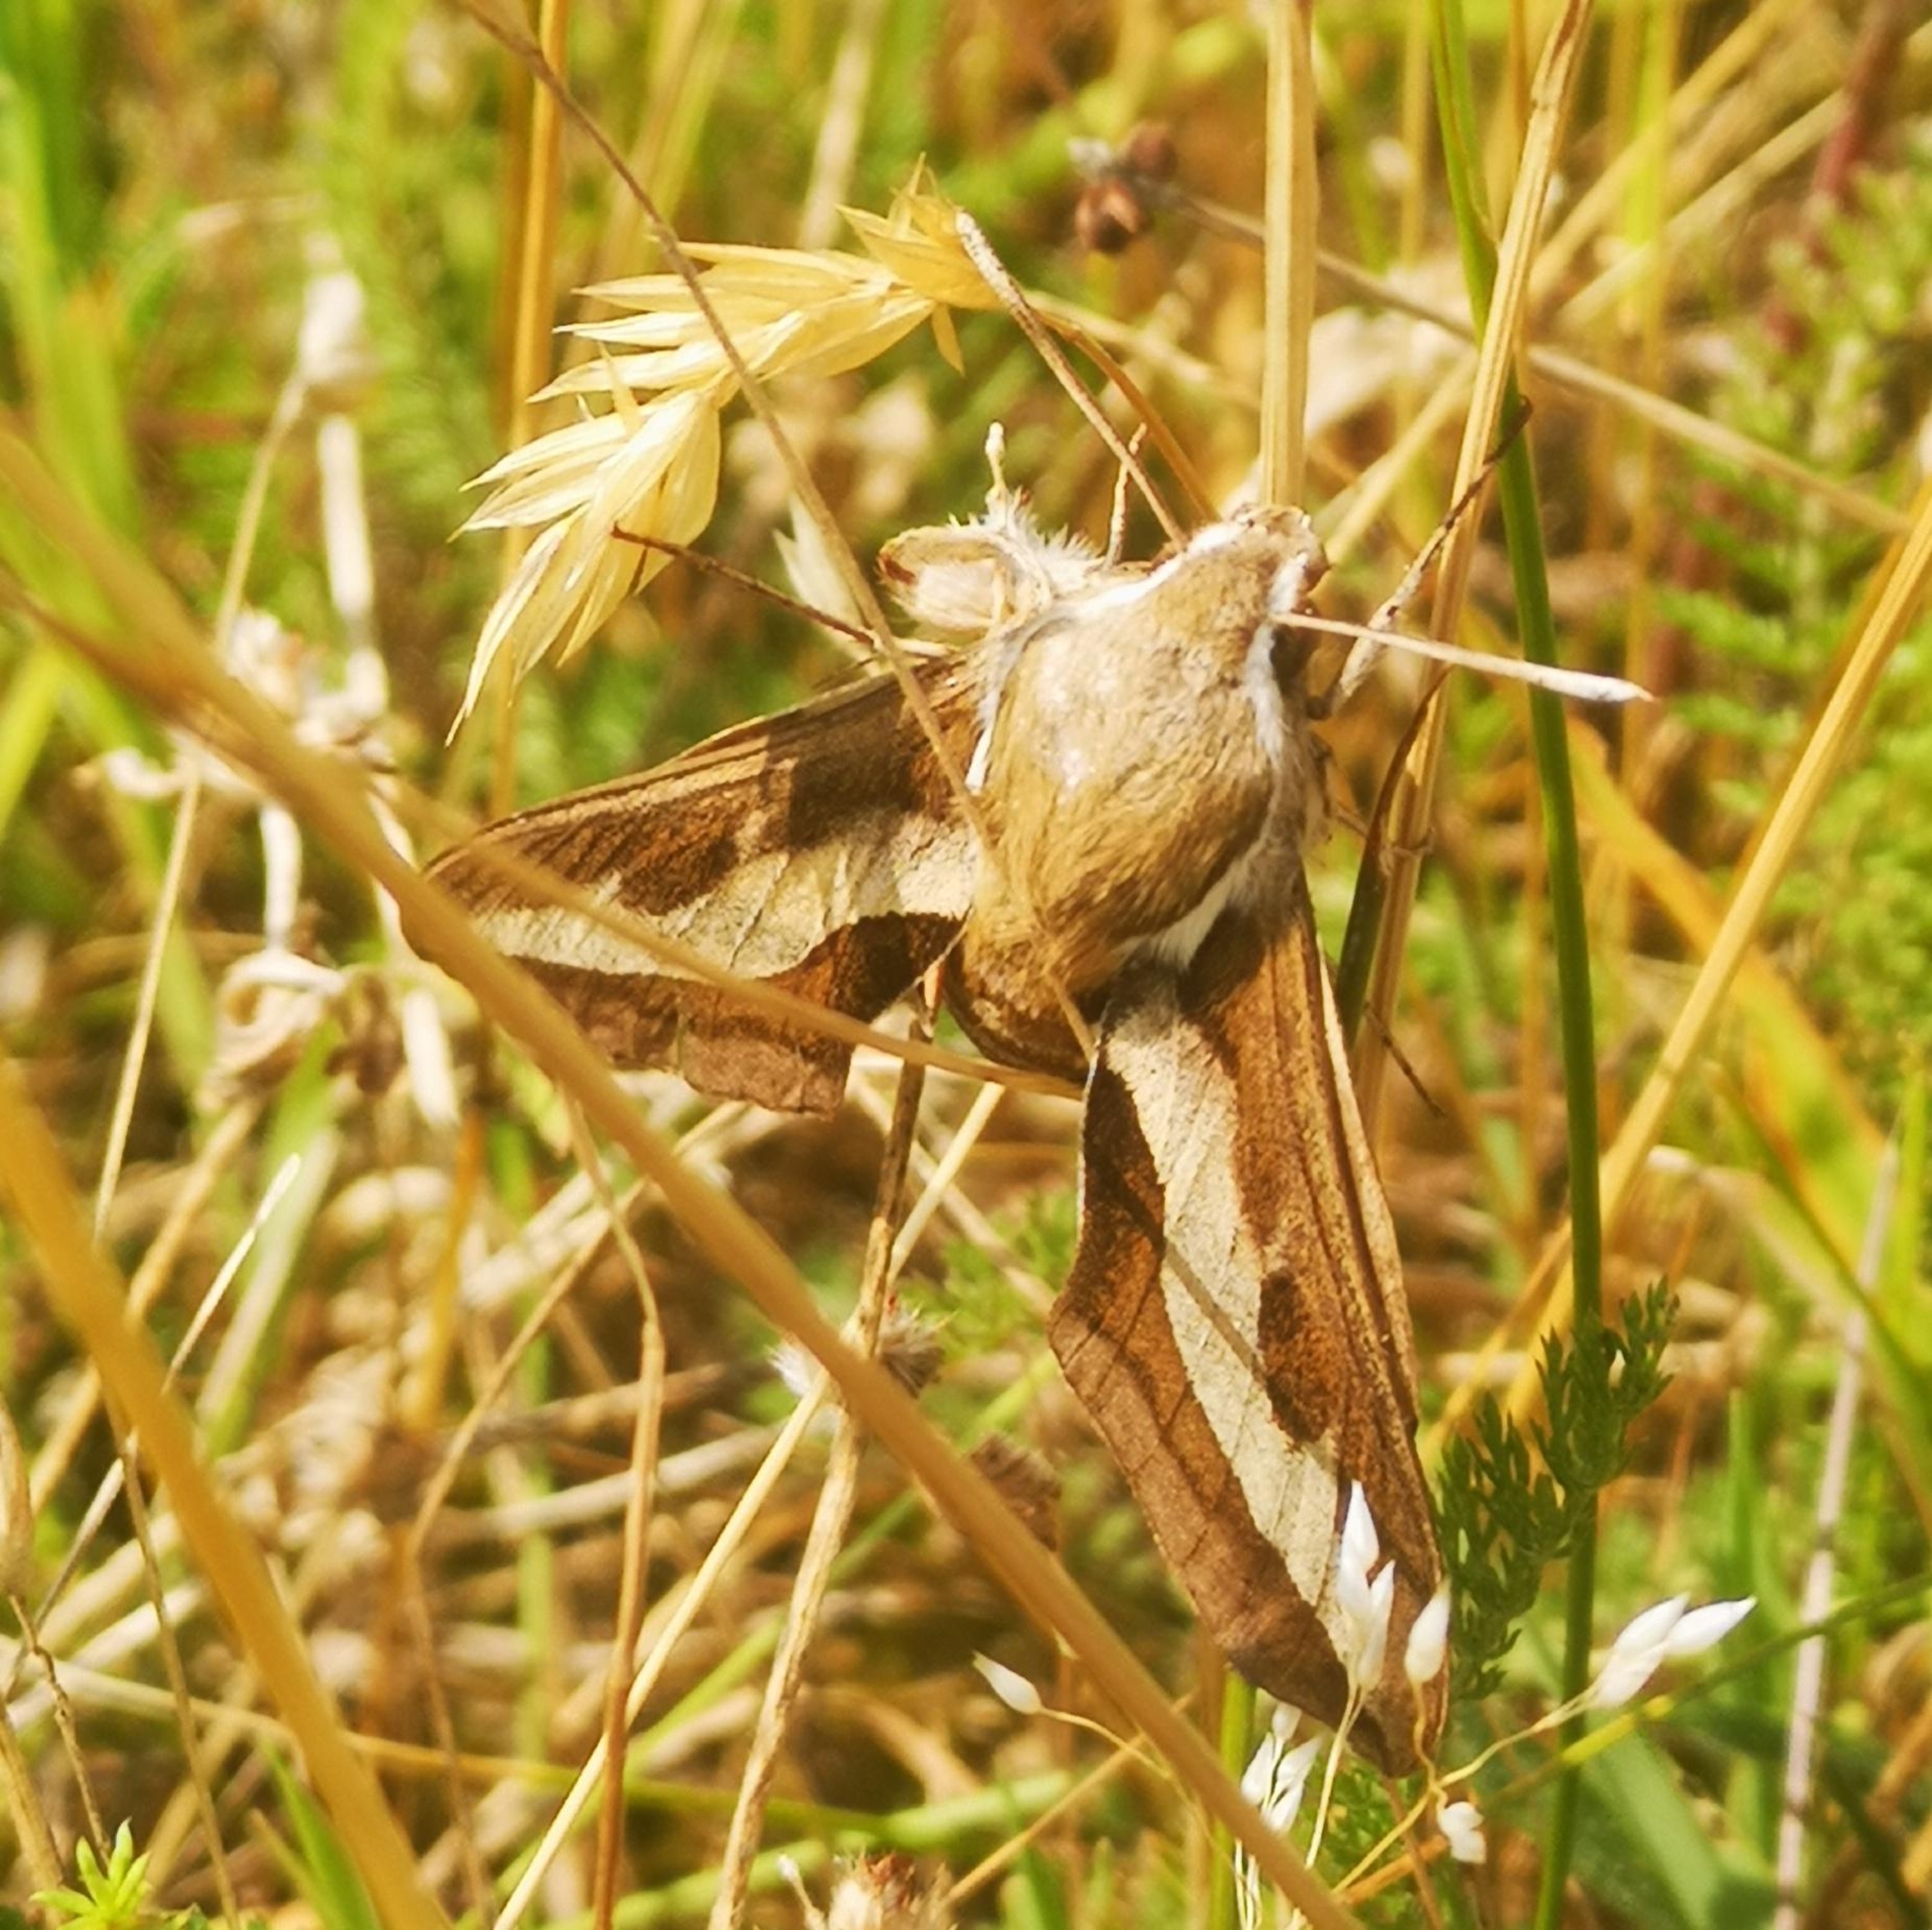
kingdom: Animalia
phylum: Arthropoda
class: Insecta
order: Lepidoptera
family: Sphingidae
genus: Hyles
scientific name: Hyles gallii
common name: Snerresværmer
